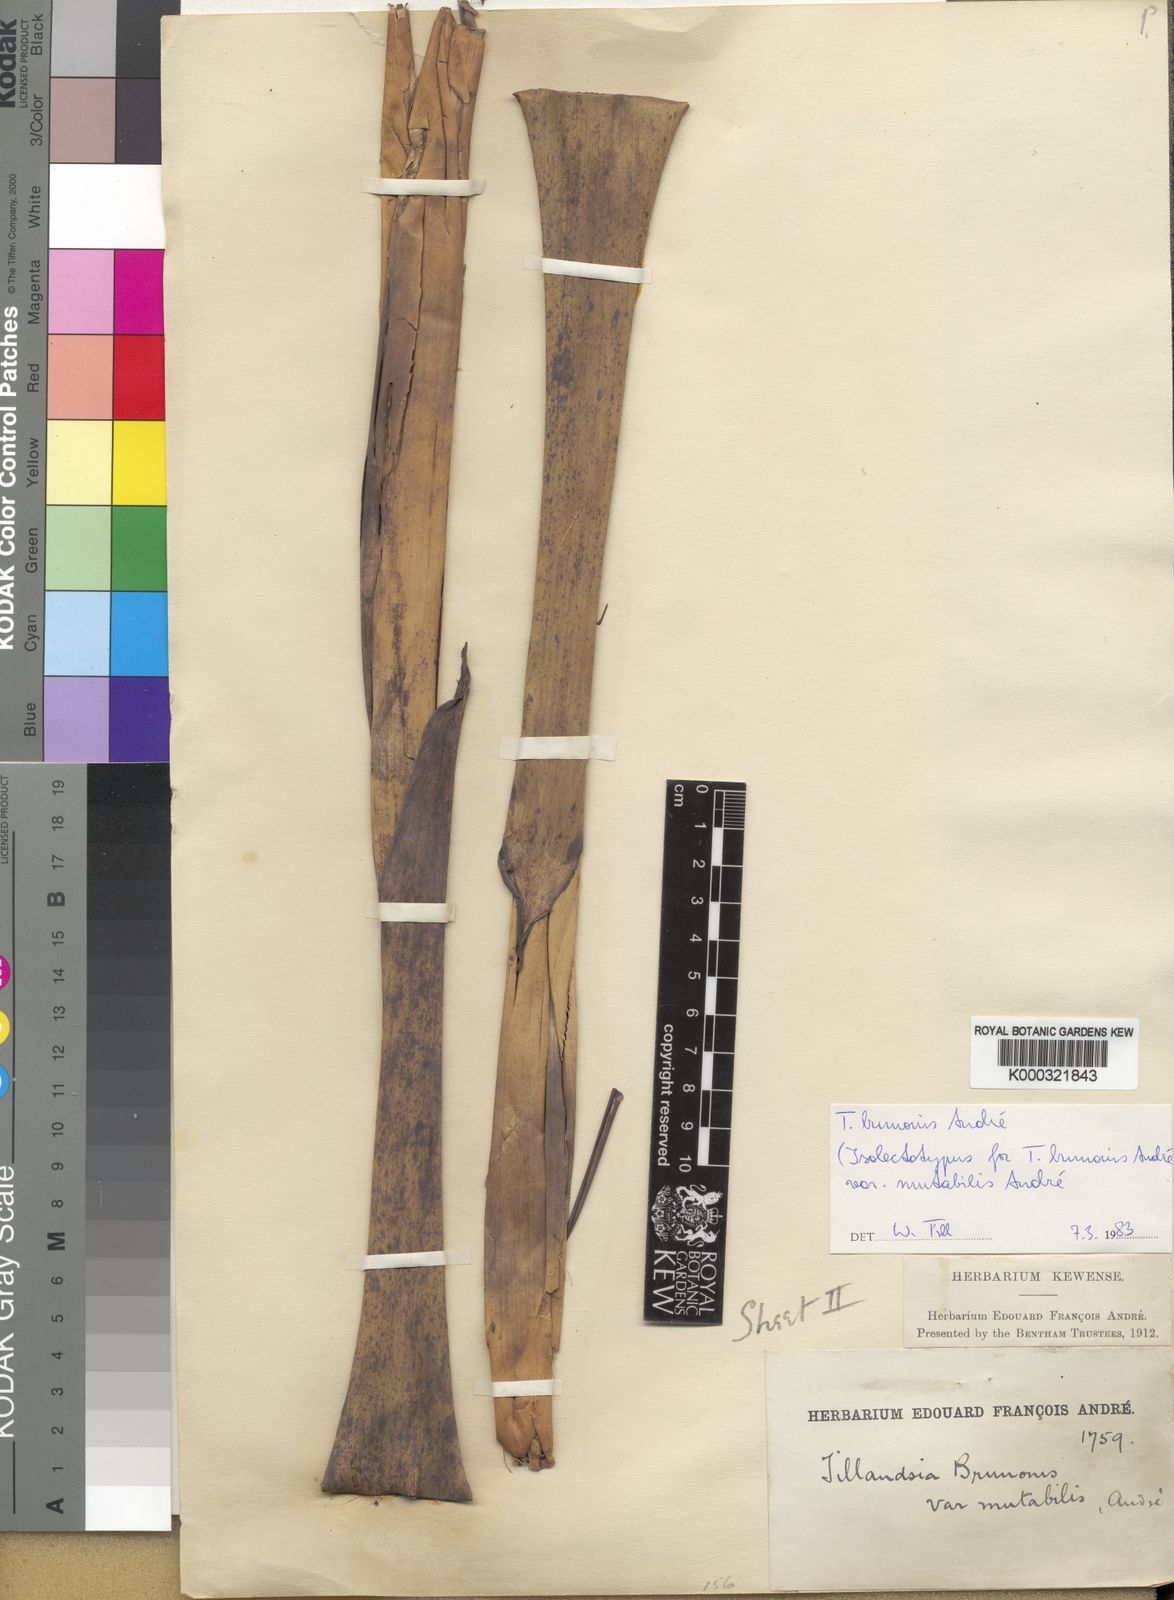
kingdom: Plantae
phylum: Tracheophyta
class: Liliopsida
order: Poales
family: Bromeliaceae
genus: Tillandsia
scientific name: Tillandsia
